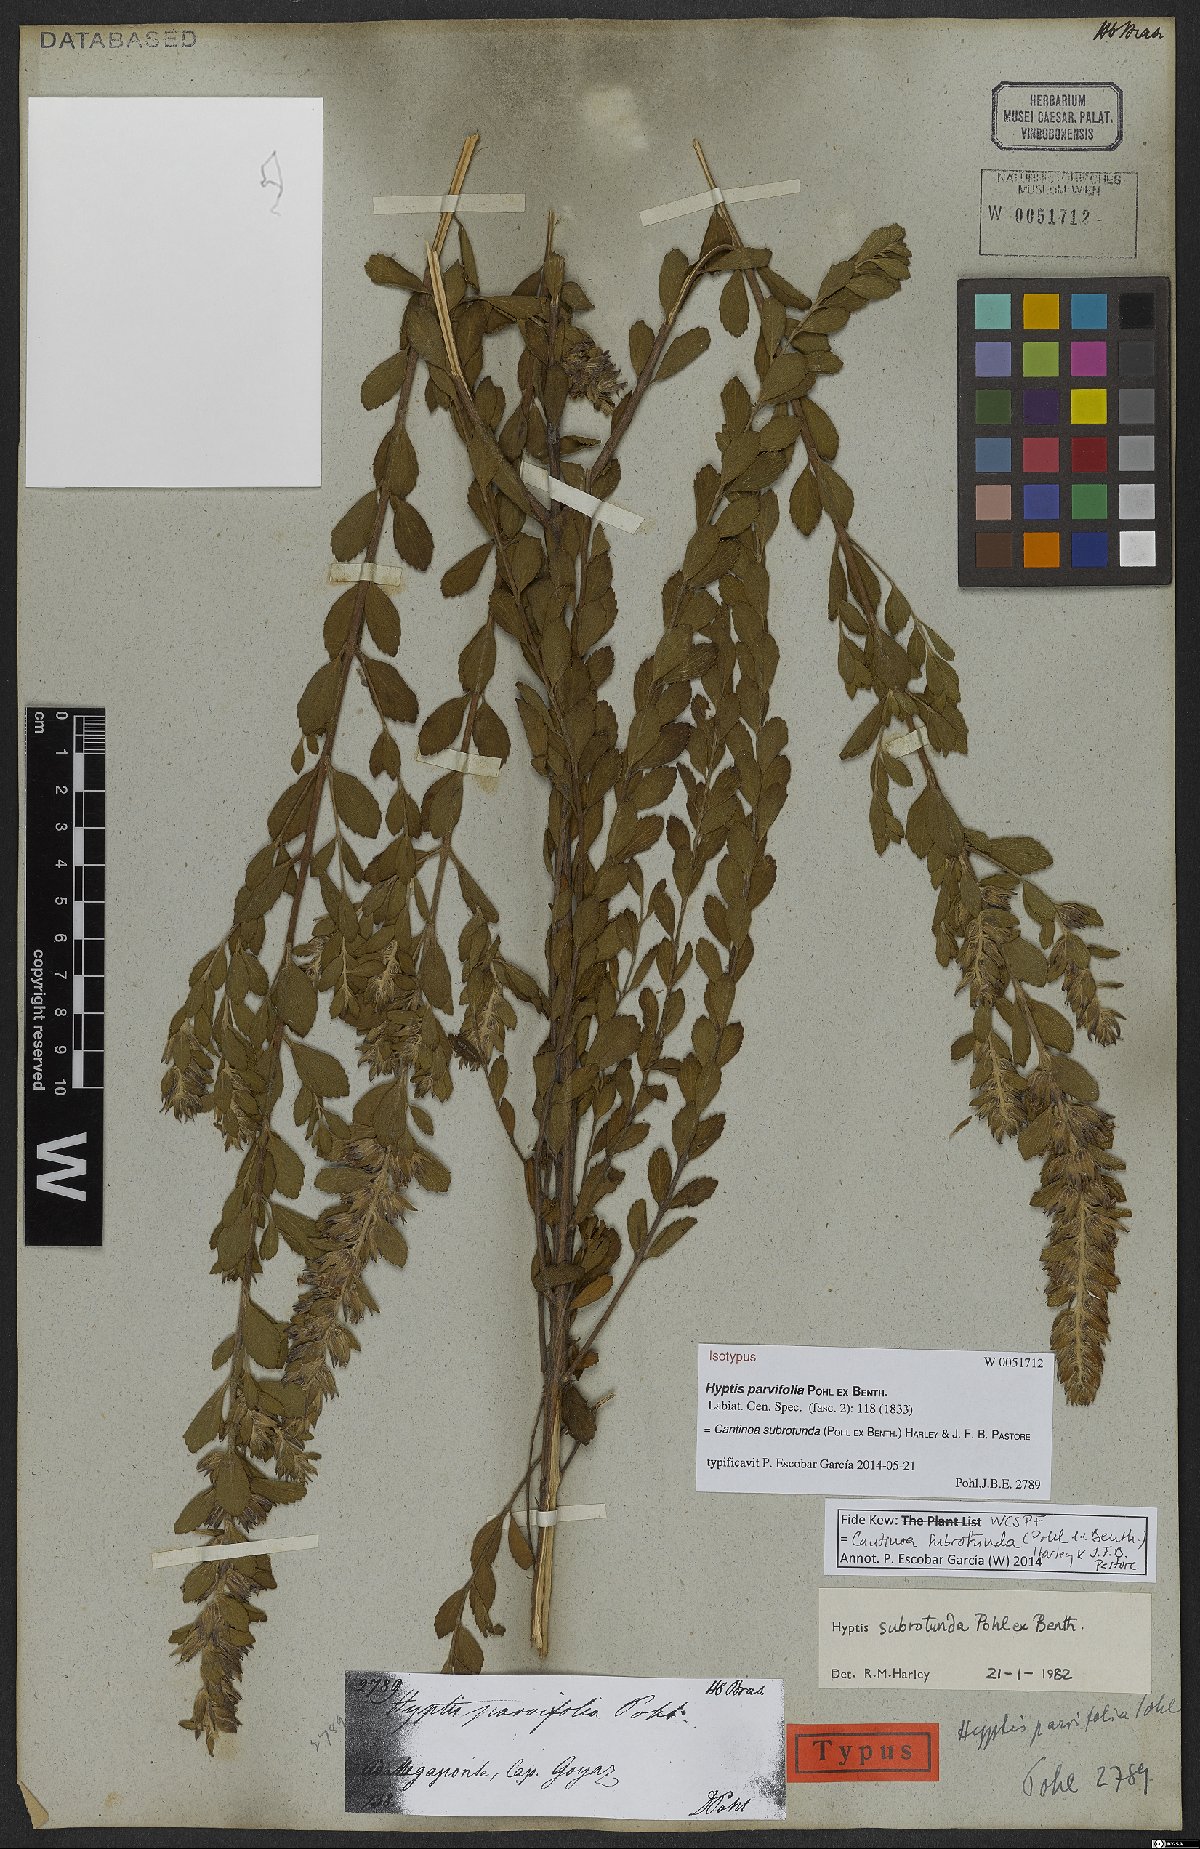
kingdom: Plantae
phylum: Tracheophyta
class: Magnoliopsida
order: Lamiales
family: Lamiaceae
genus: Cantinoa
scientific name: Cantinoa subrotunda
